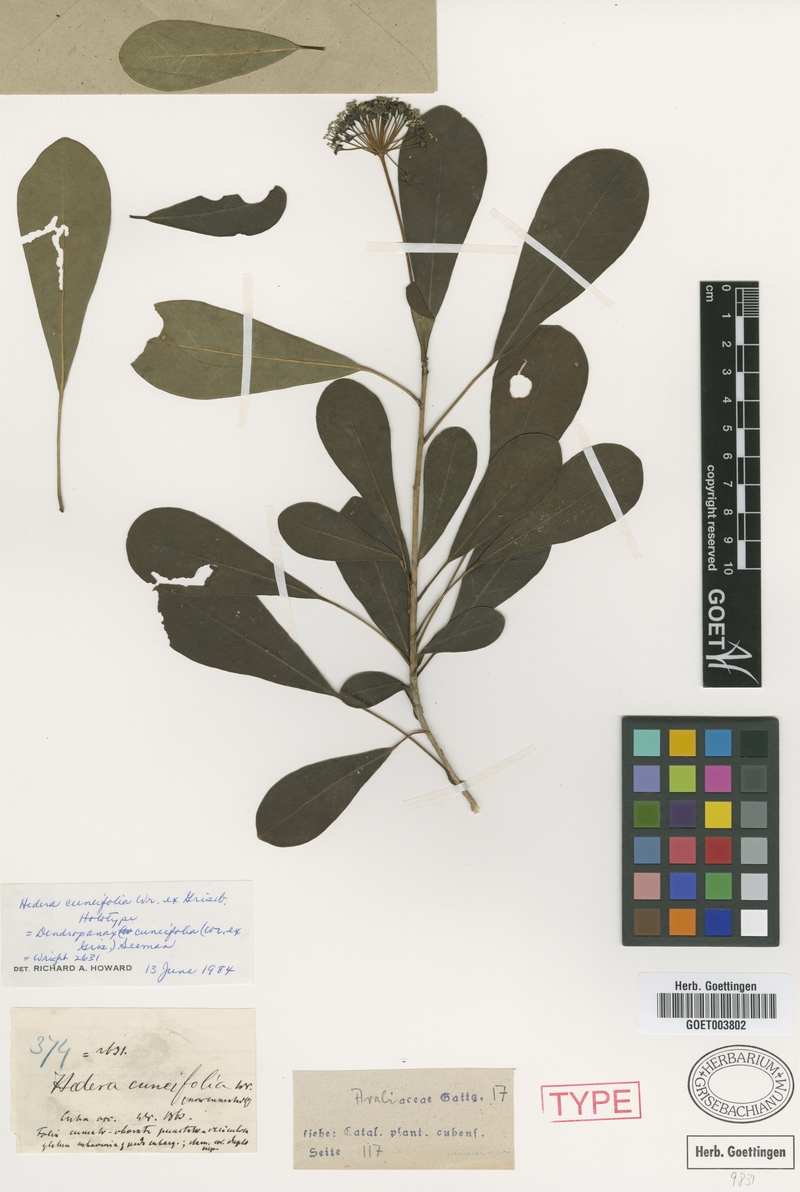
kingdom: Plantae
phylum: Tracheophyta
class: Magnoliopsida
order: Apiales
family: Araliaceae
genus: Dendropanax
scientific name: Dendropanax cuneifolius
